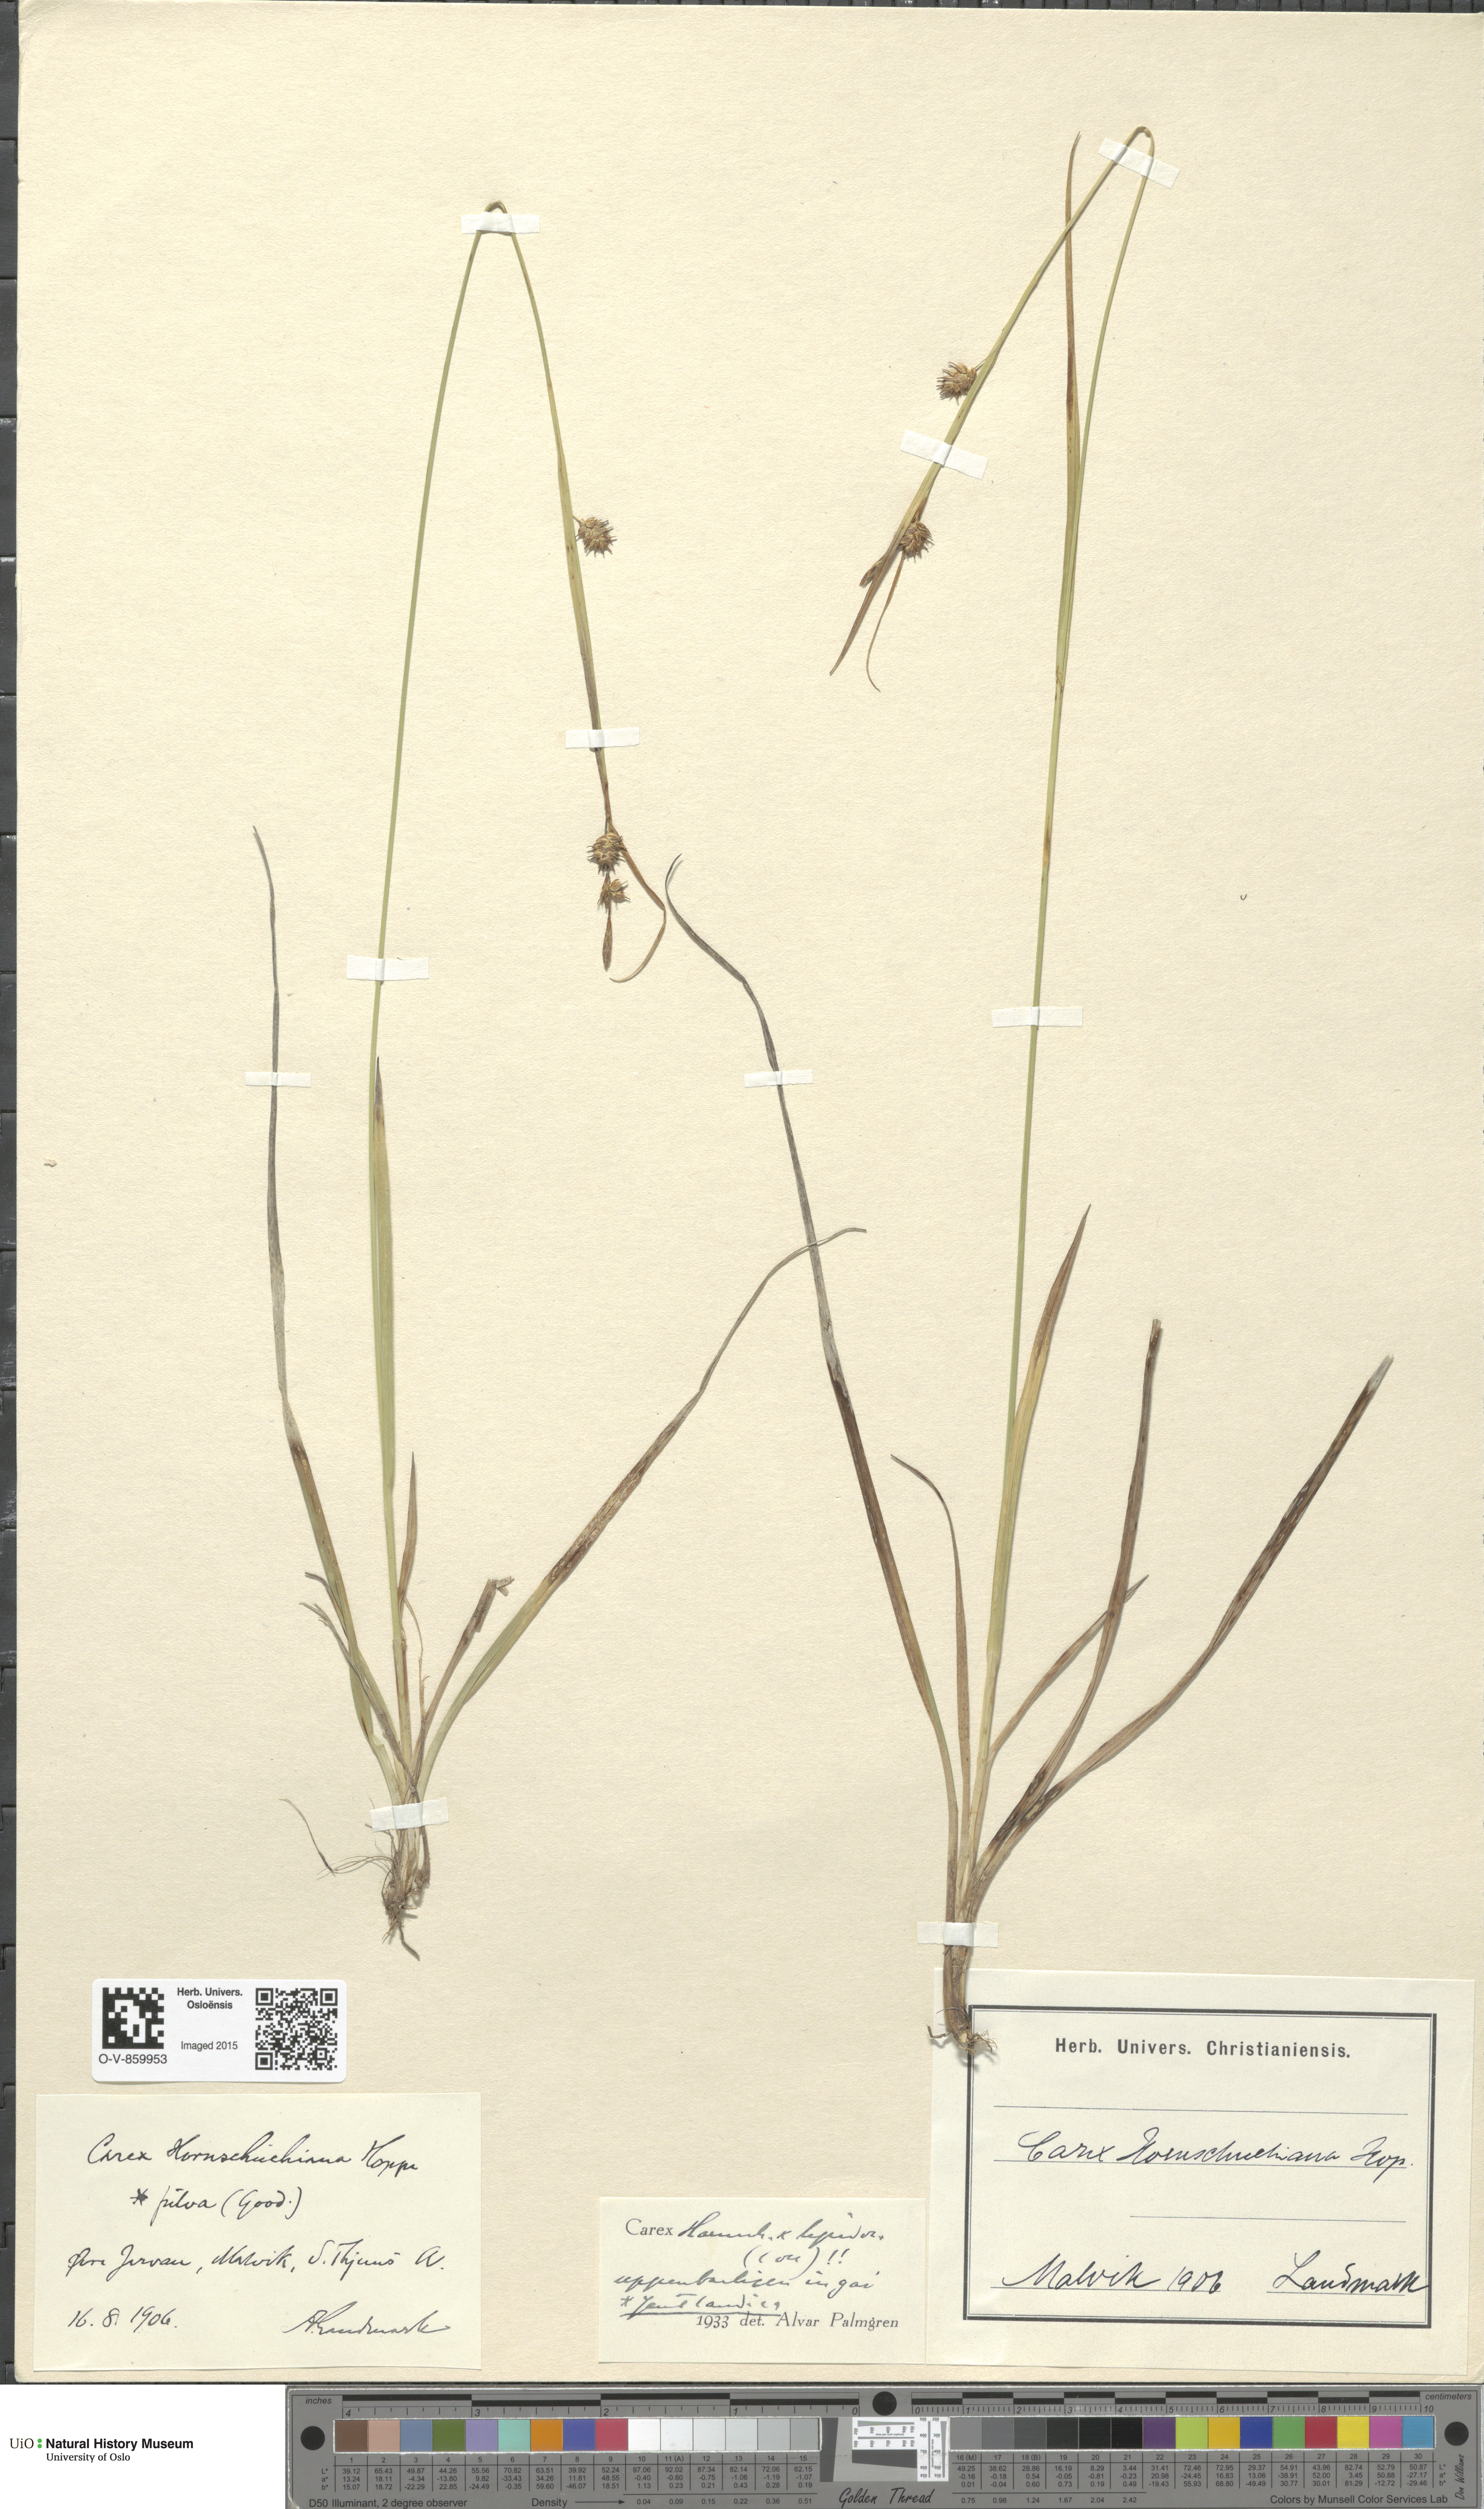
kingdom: Plantae
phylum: Tracheophyta
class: Liliopsida
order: Poales
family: Cyperaceae
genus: Carex
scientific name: Carex
